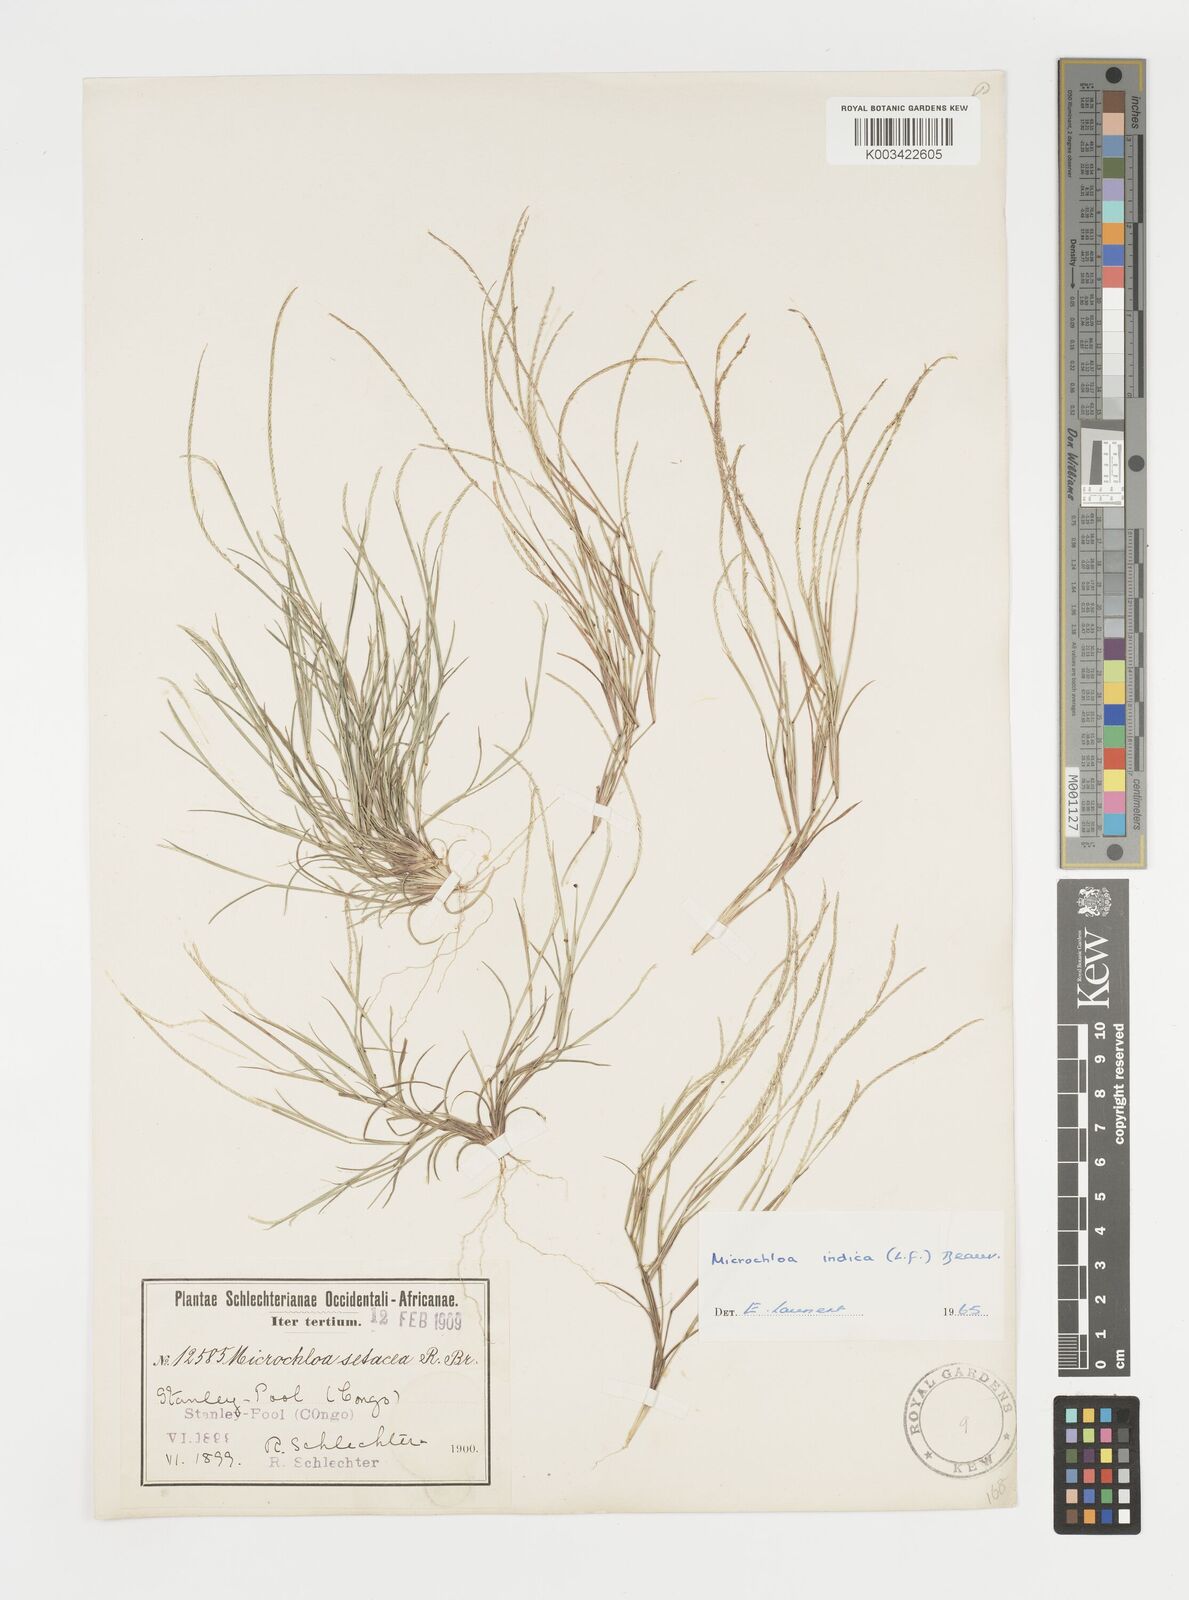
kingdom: Plantae
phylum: Tracheophyta
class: Liliopsida
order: Poales
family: Poaceae
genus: Microchloa
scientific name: Microchloa indica
